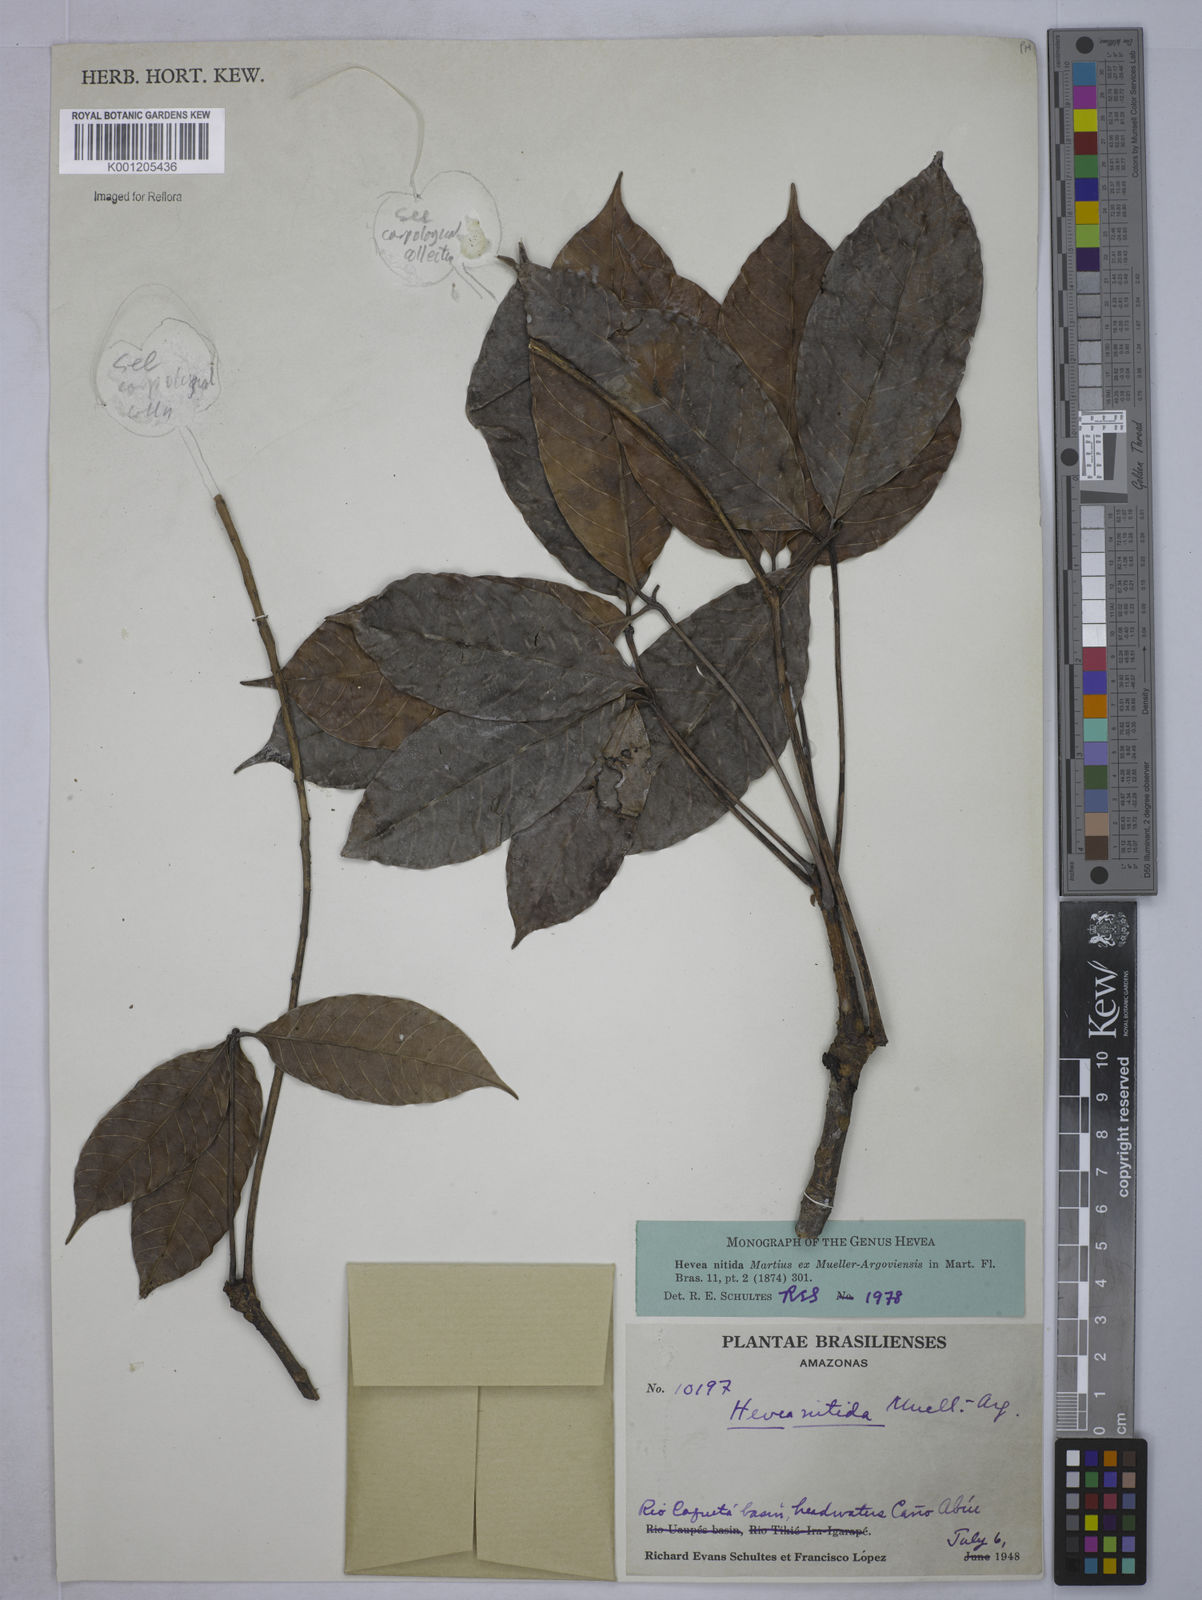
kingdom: Plantae
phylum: Tracheophyta
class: Magnoliopsida
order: Malpighiales
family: Euphorbiaceae
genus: Hevea
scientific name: Hevea
